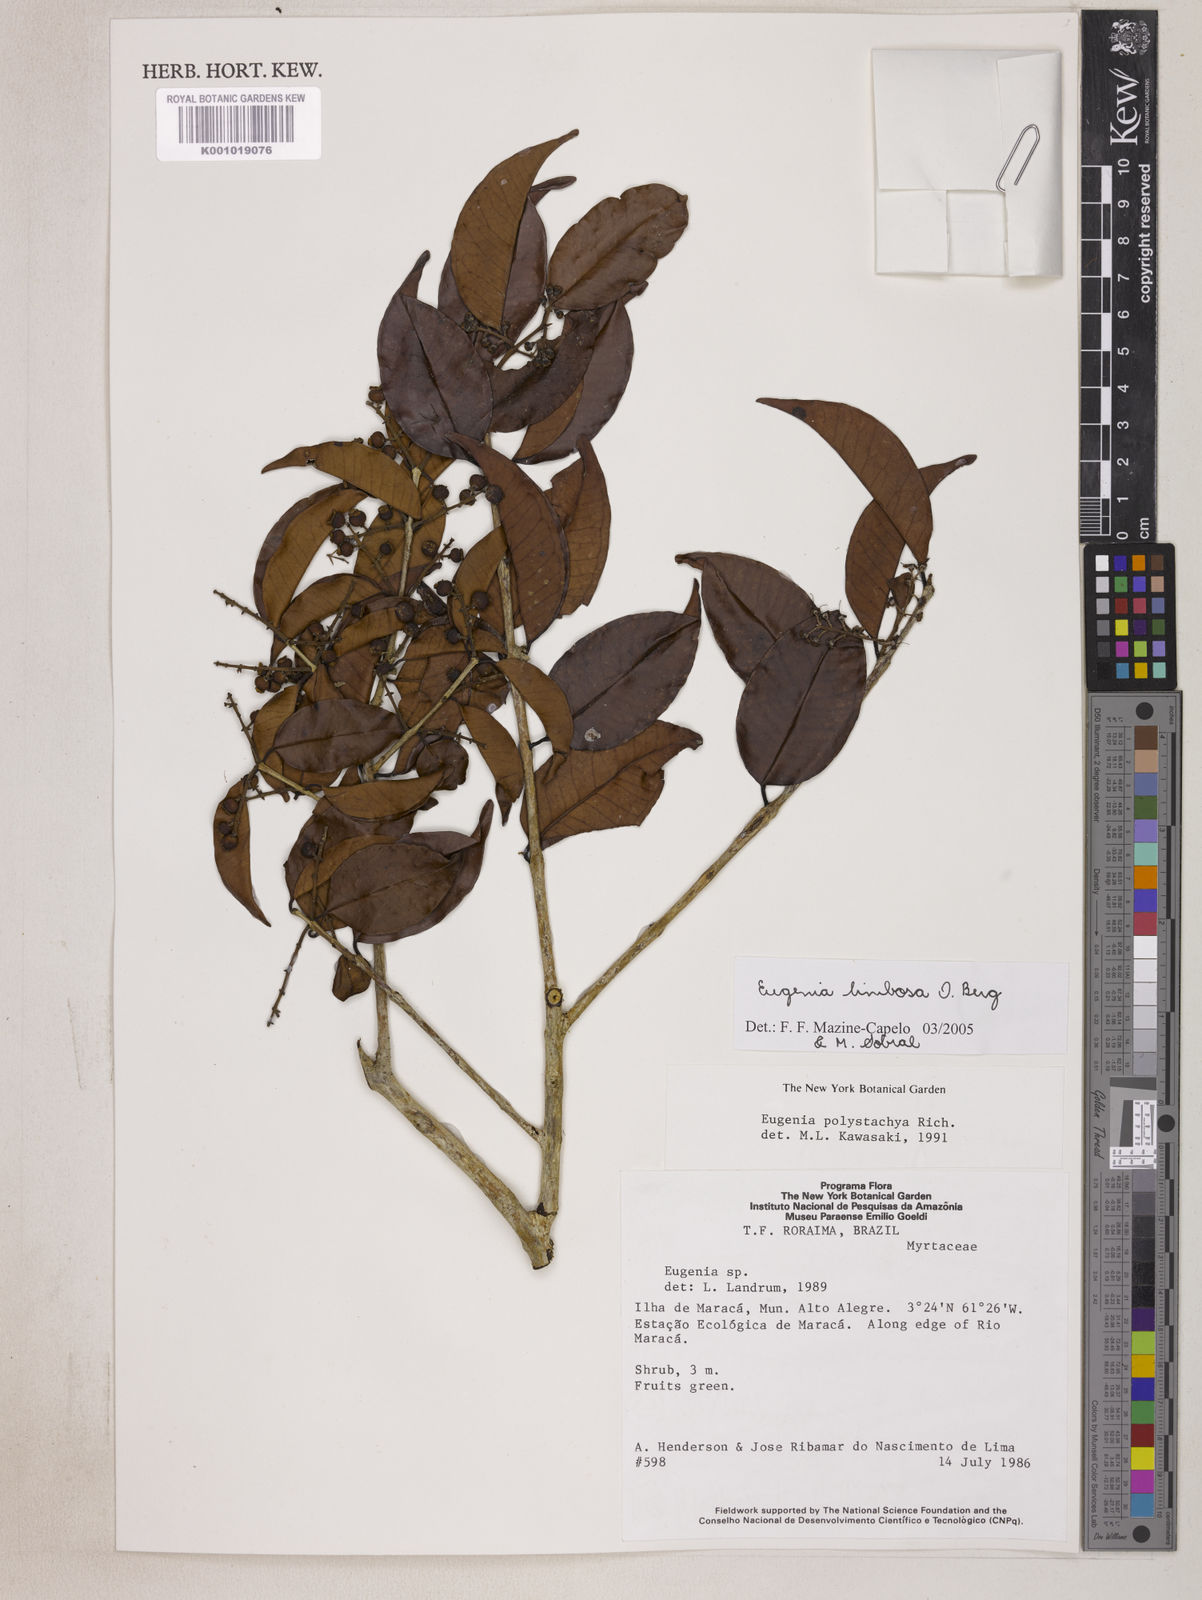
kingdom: Plantae
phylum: Tracheophyta
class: Magnoliopsida
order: Myrtales
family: Myrtaceae
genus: Eugenia
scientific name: Eugenia limbosa
